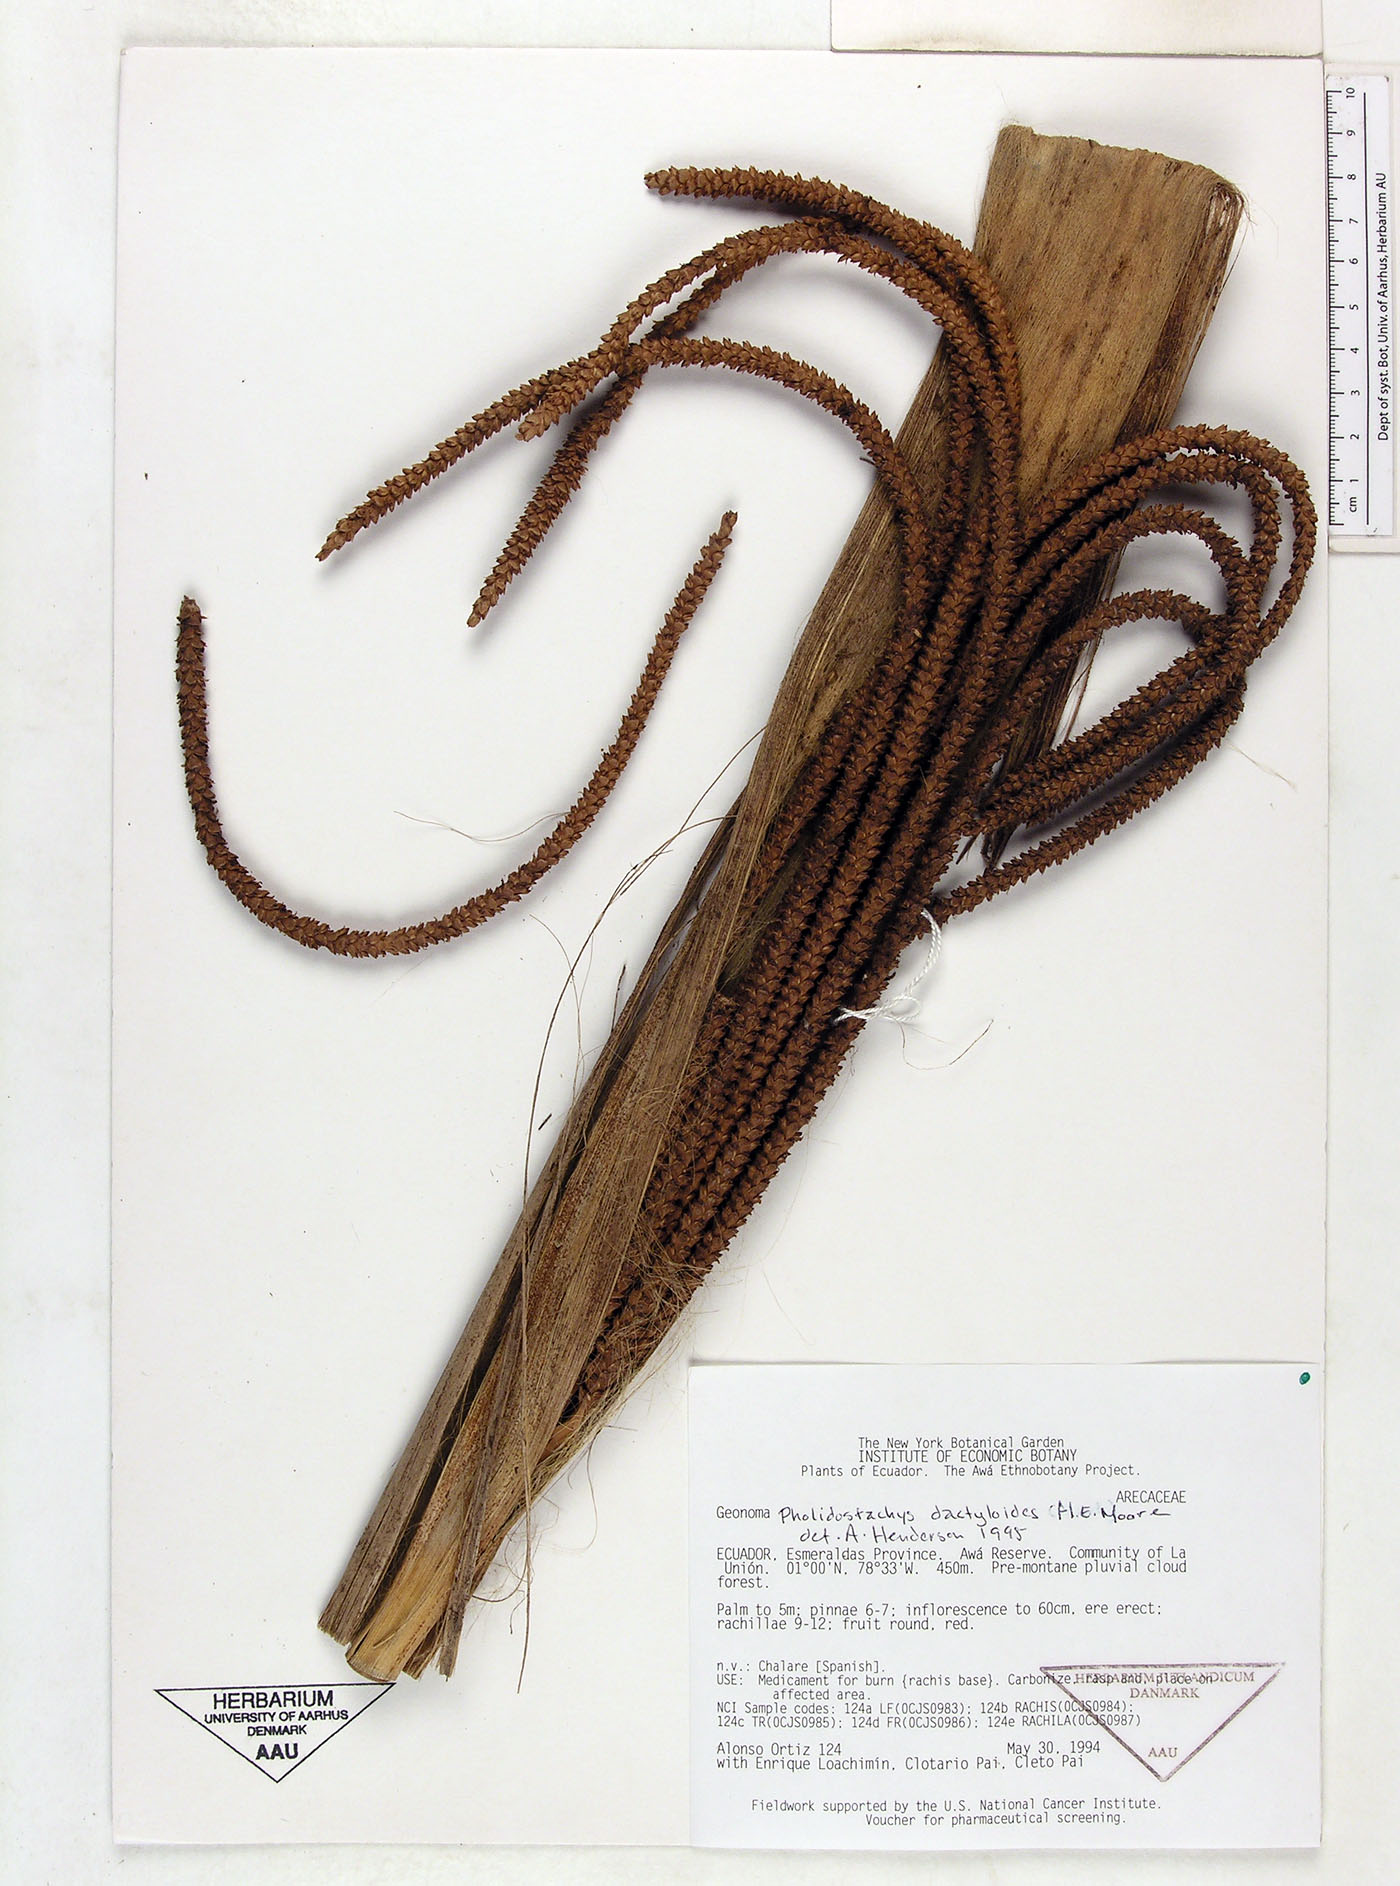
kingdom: Plantae
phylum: Tracheophyta
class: Liliopsida
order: Arecales
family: Arecaceae
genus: Pholidostachys
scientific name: Pholidostachys dactyloides
